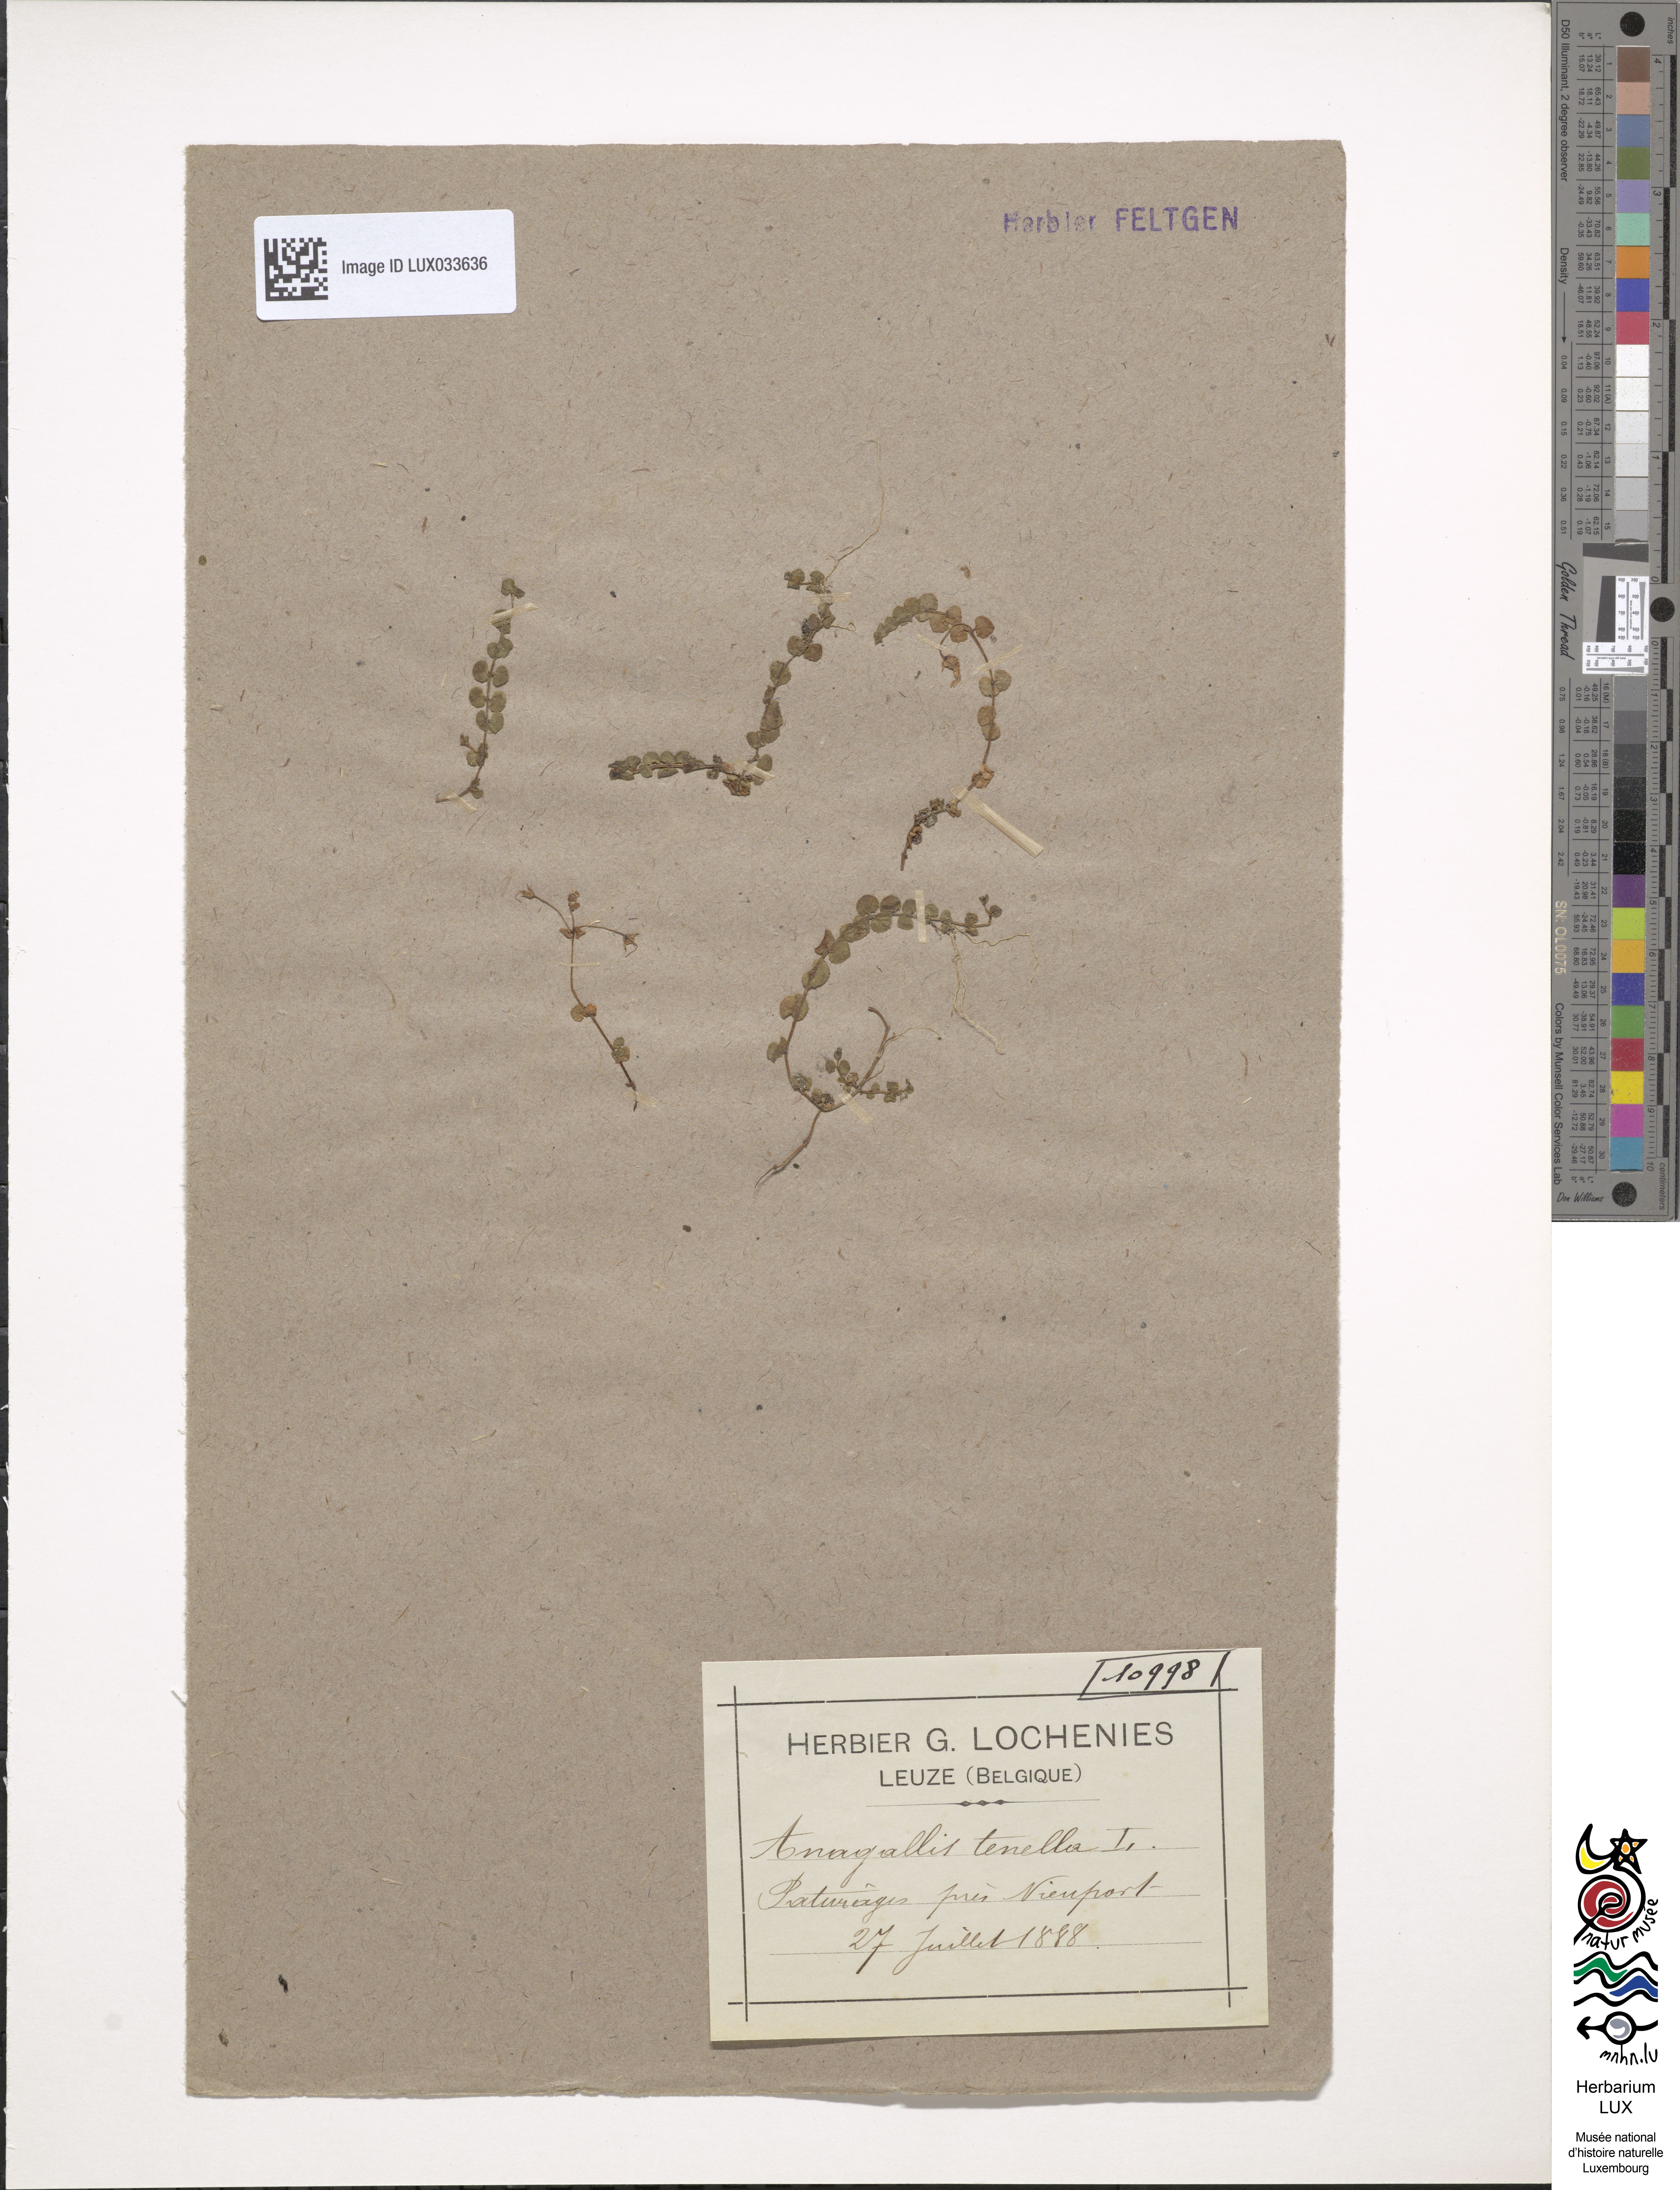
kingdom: Plantae
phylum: Tracheophyta
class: Magnoliopsida
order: Ericales
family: Primulaceae
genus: Lysimachia
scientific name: Lysimachia tenella
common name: European bog pimpernel
